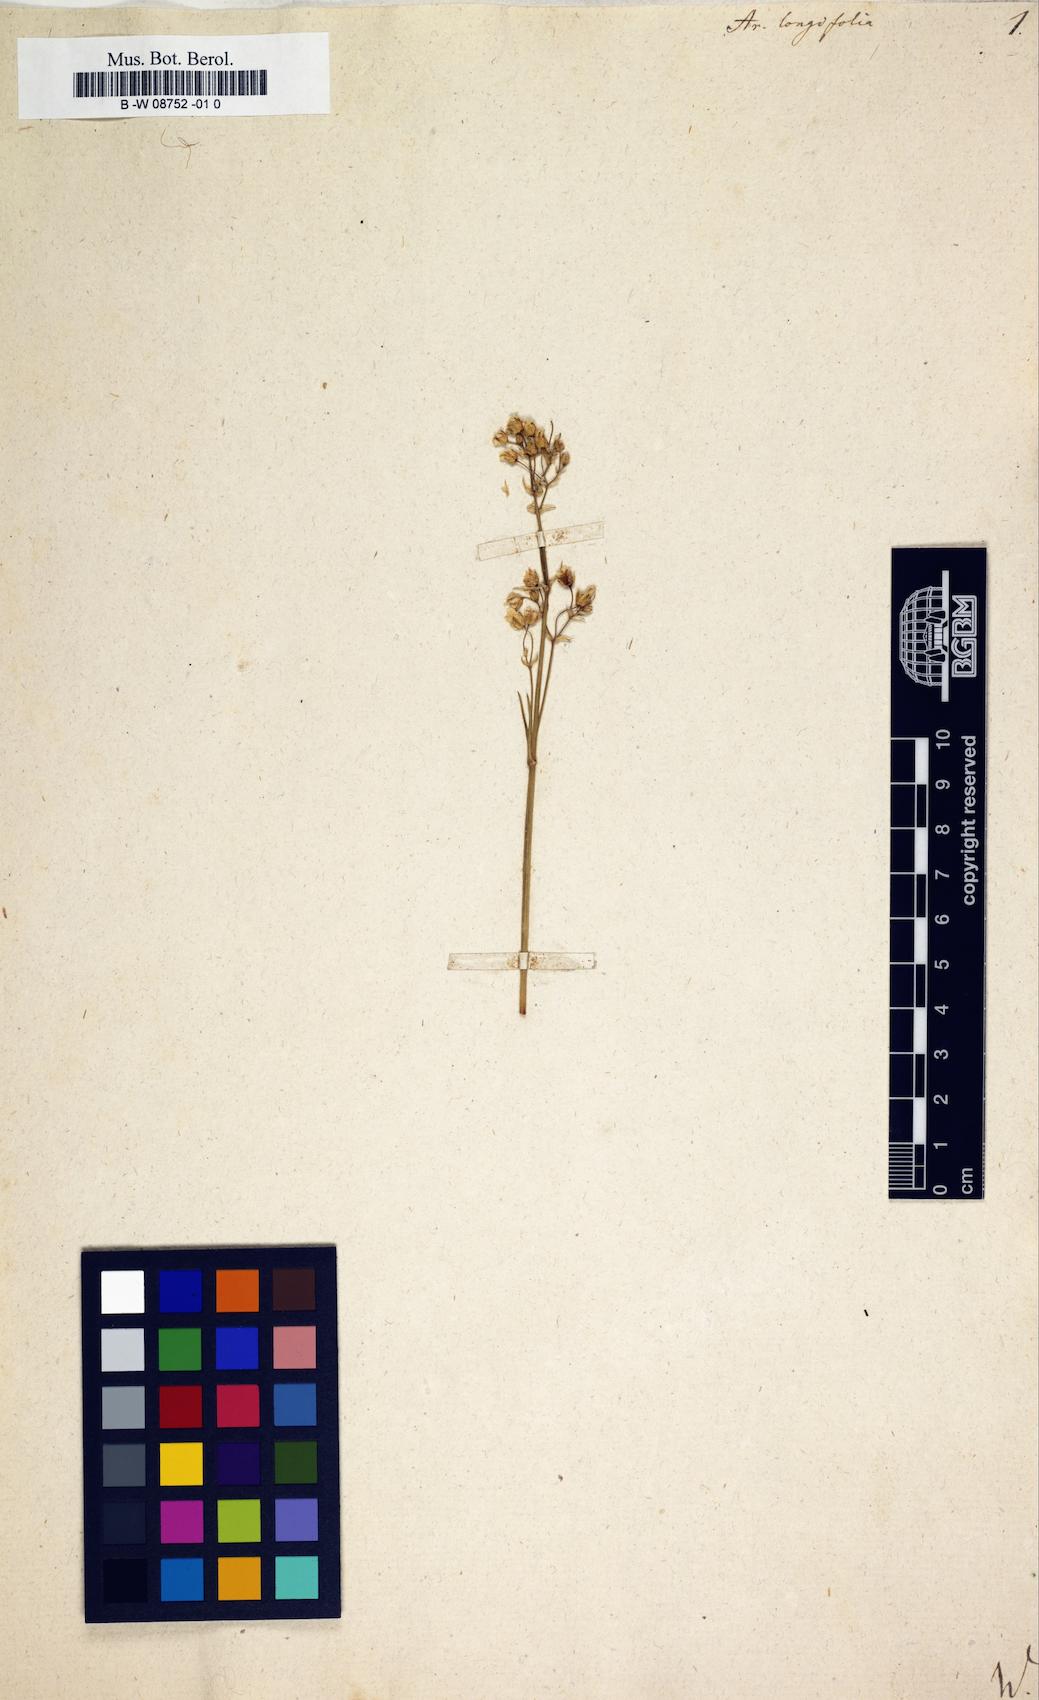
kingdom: Plantae
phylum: Tracheophyta
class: Magnoliopsida
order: Caryophyllales
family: Caryophyllaceae
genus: Eremogone
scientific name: Eremogone
